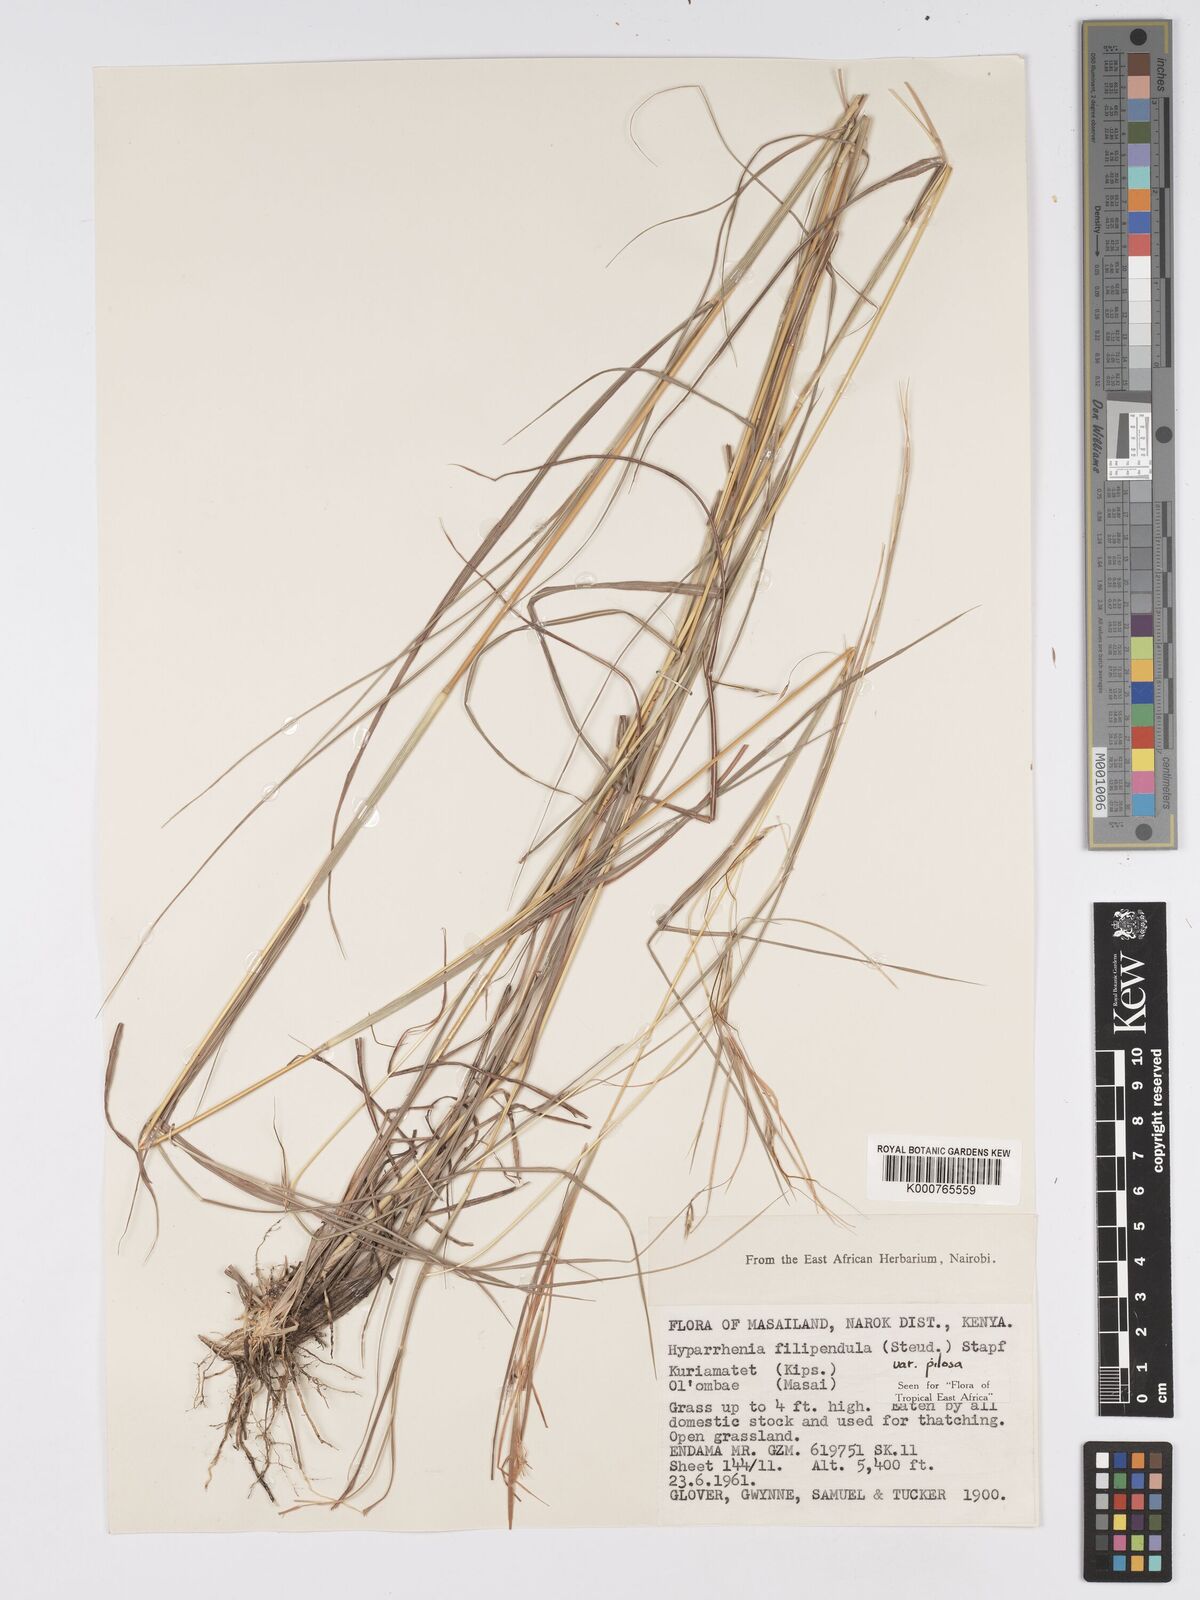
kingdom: Plantae
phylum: Tracheophyta
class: Liliopsida
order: Poales
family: Poaceae
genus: Hyparrhenia
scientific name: Hyparrhenia filipendula
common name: Tambookie grass
